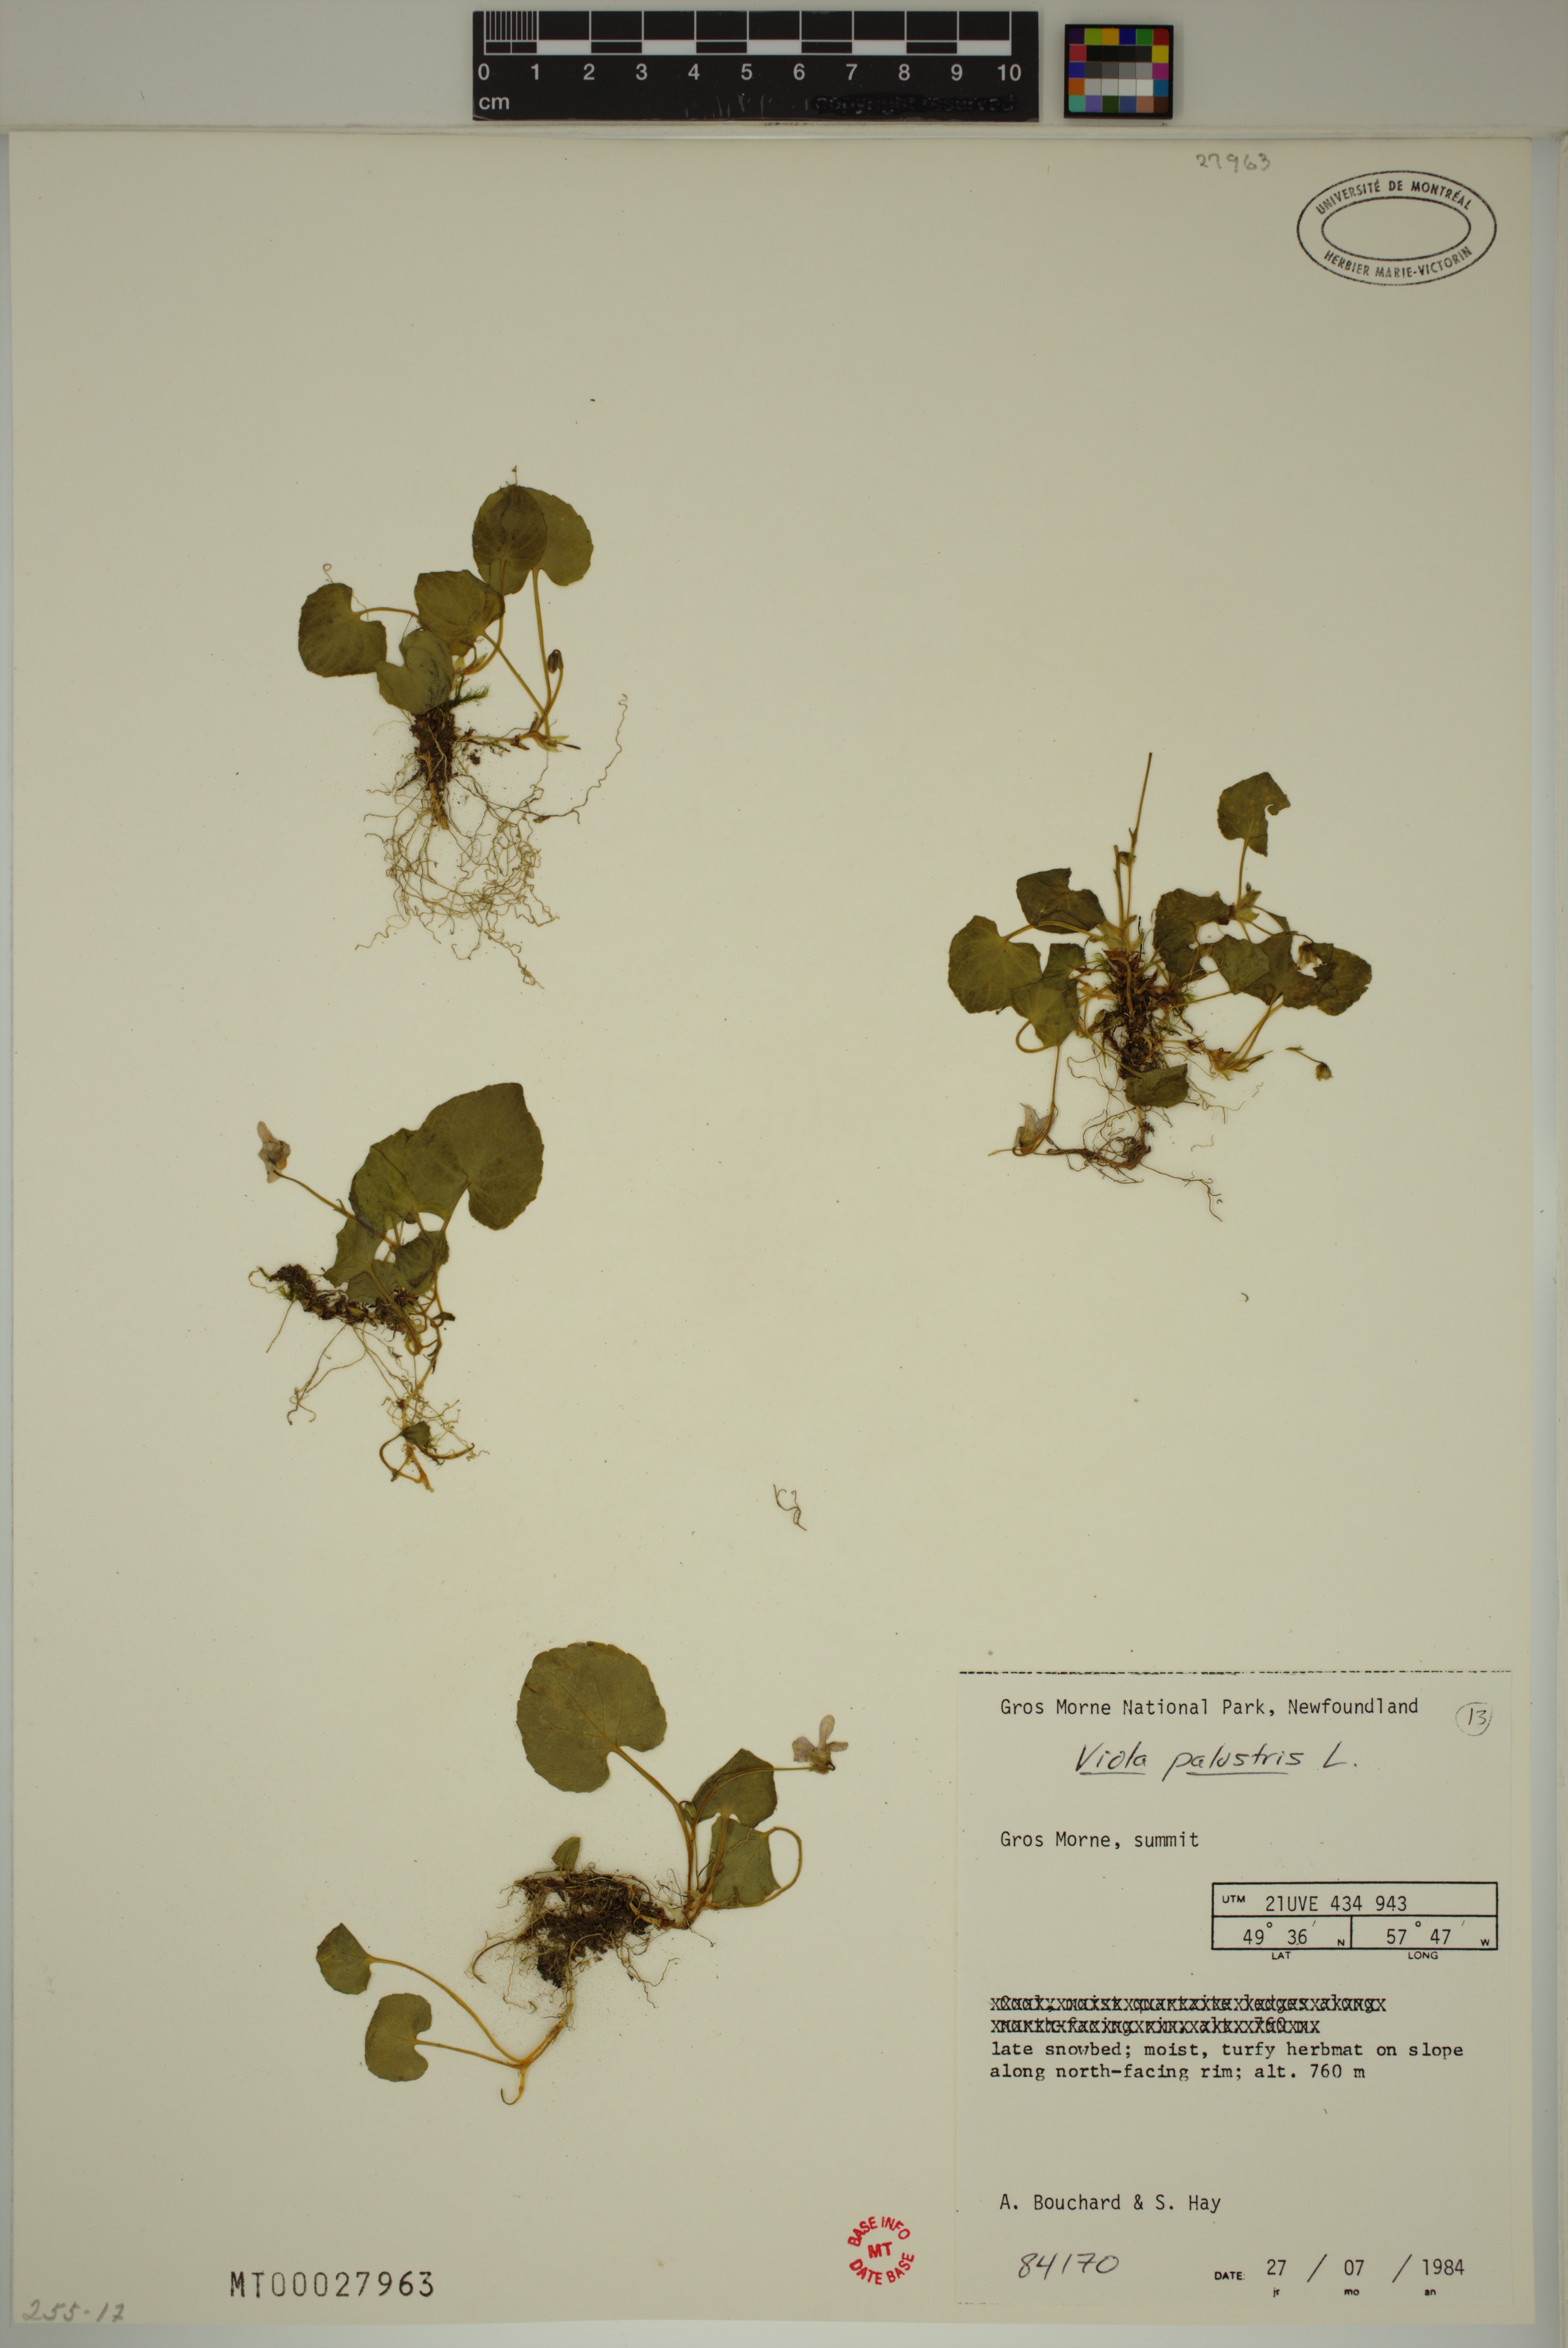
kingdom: Plantae
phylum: Tracheophyta
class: Magnoliopsida
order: Malpighiales
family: Violaceae
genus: Viola
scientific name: Viola palustris
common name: Marsh violet
